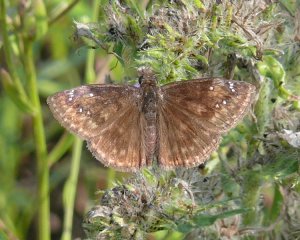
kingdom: Animalia
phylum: Arthropoda
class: Insecta
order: Lepidoptera
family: Hesperiidae
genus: Gesta
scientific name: Gesta
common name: Wild Indigo Duskywing
